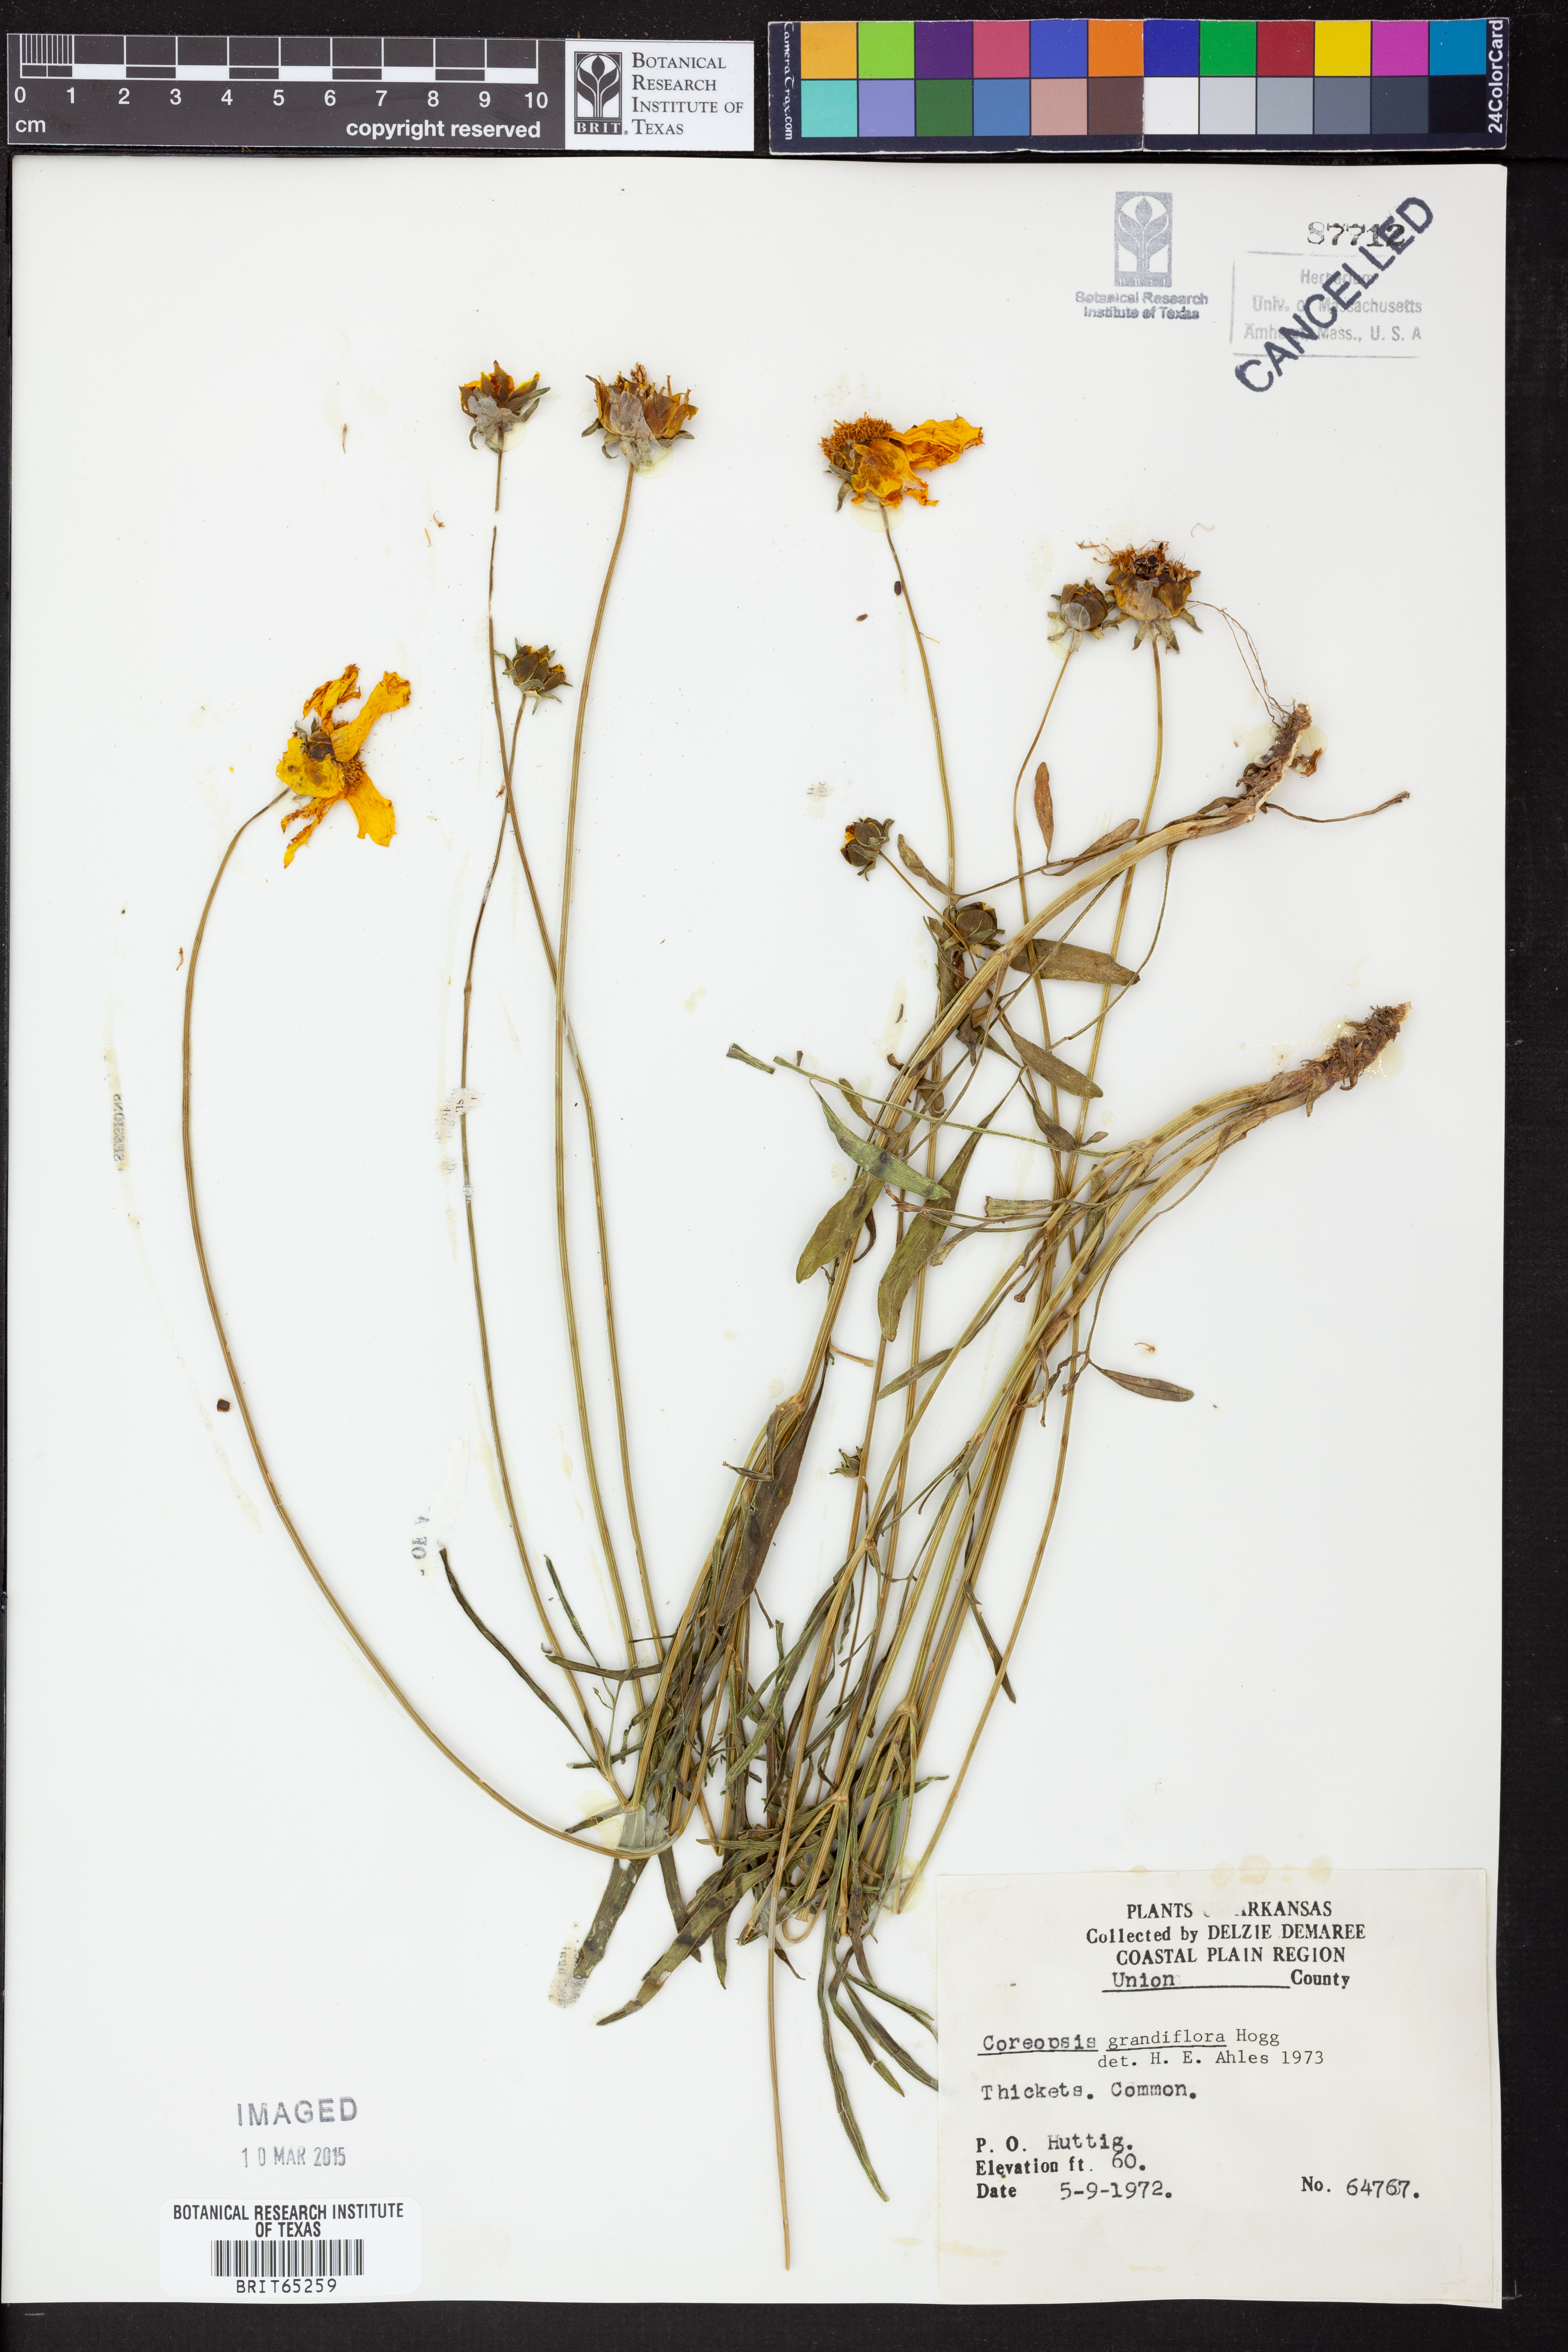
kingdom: Plantae
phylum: Tracheophyta
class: Magnoliopsida
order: Asterales
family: Asteraceae
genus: Coreopsis
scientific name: Coreopsis grandiflora
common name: Large-flowered tickseed
